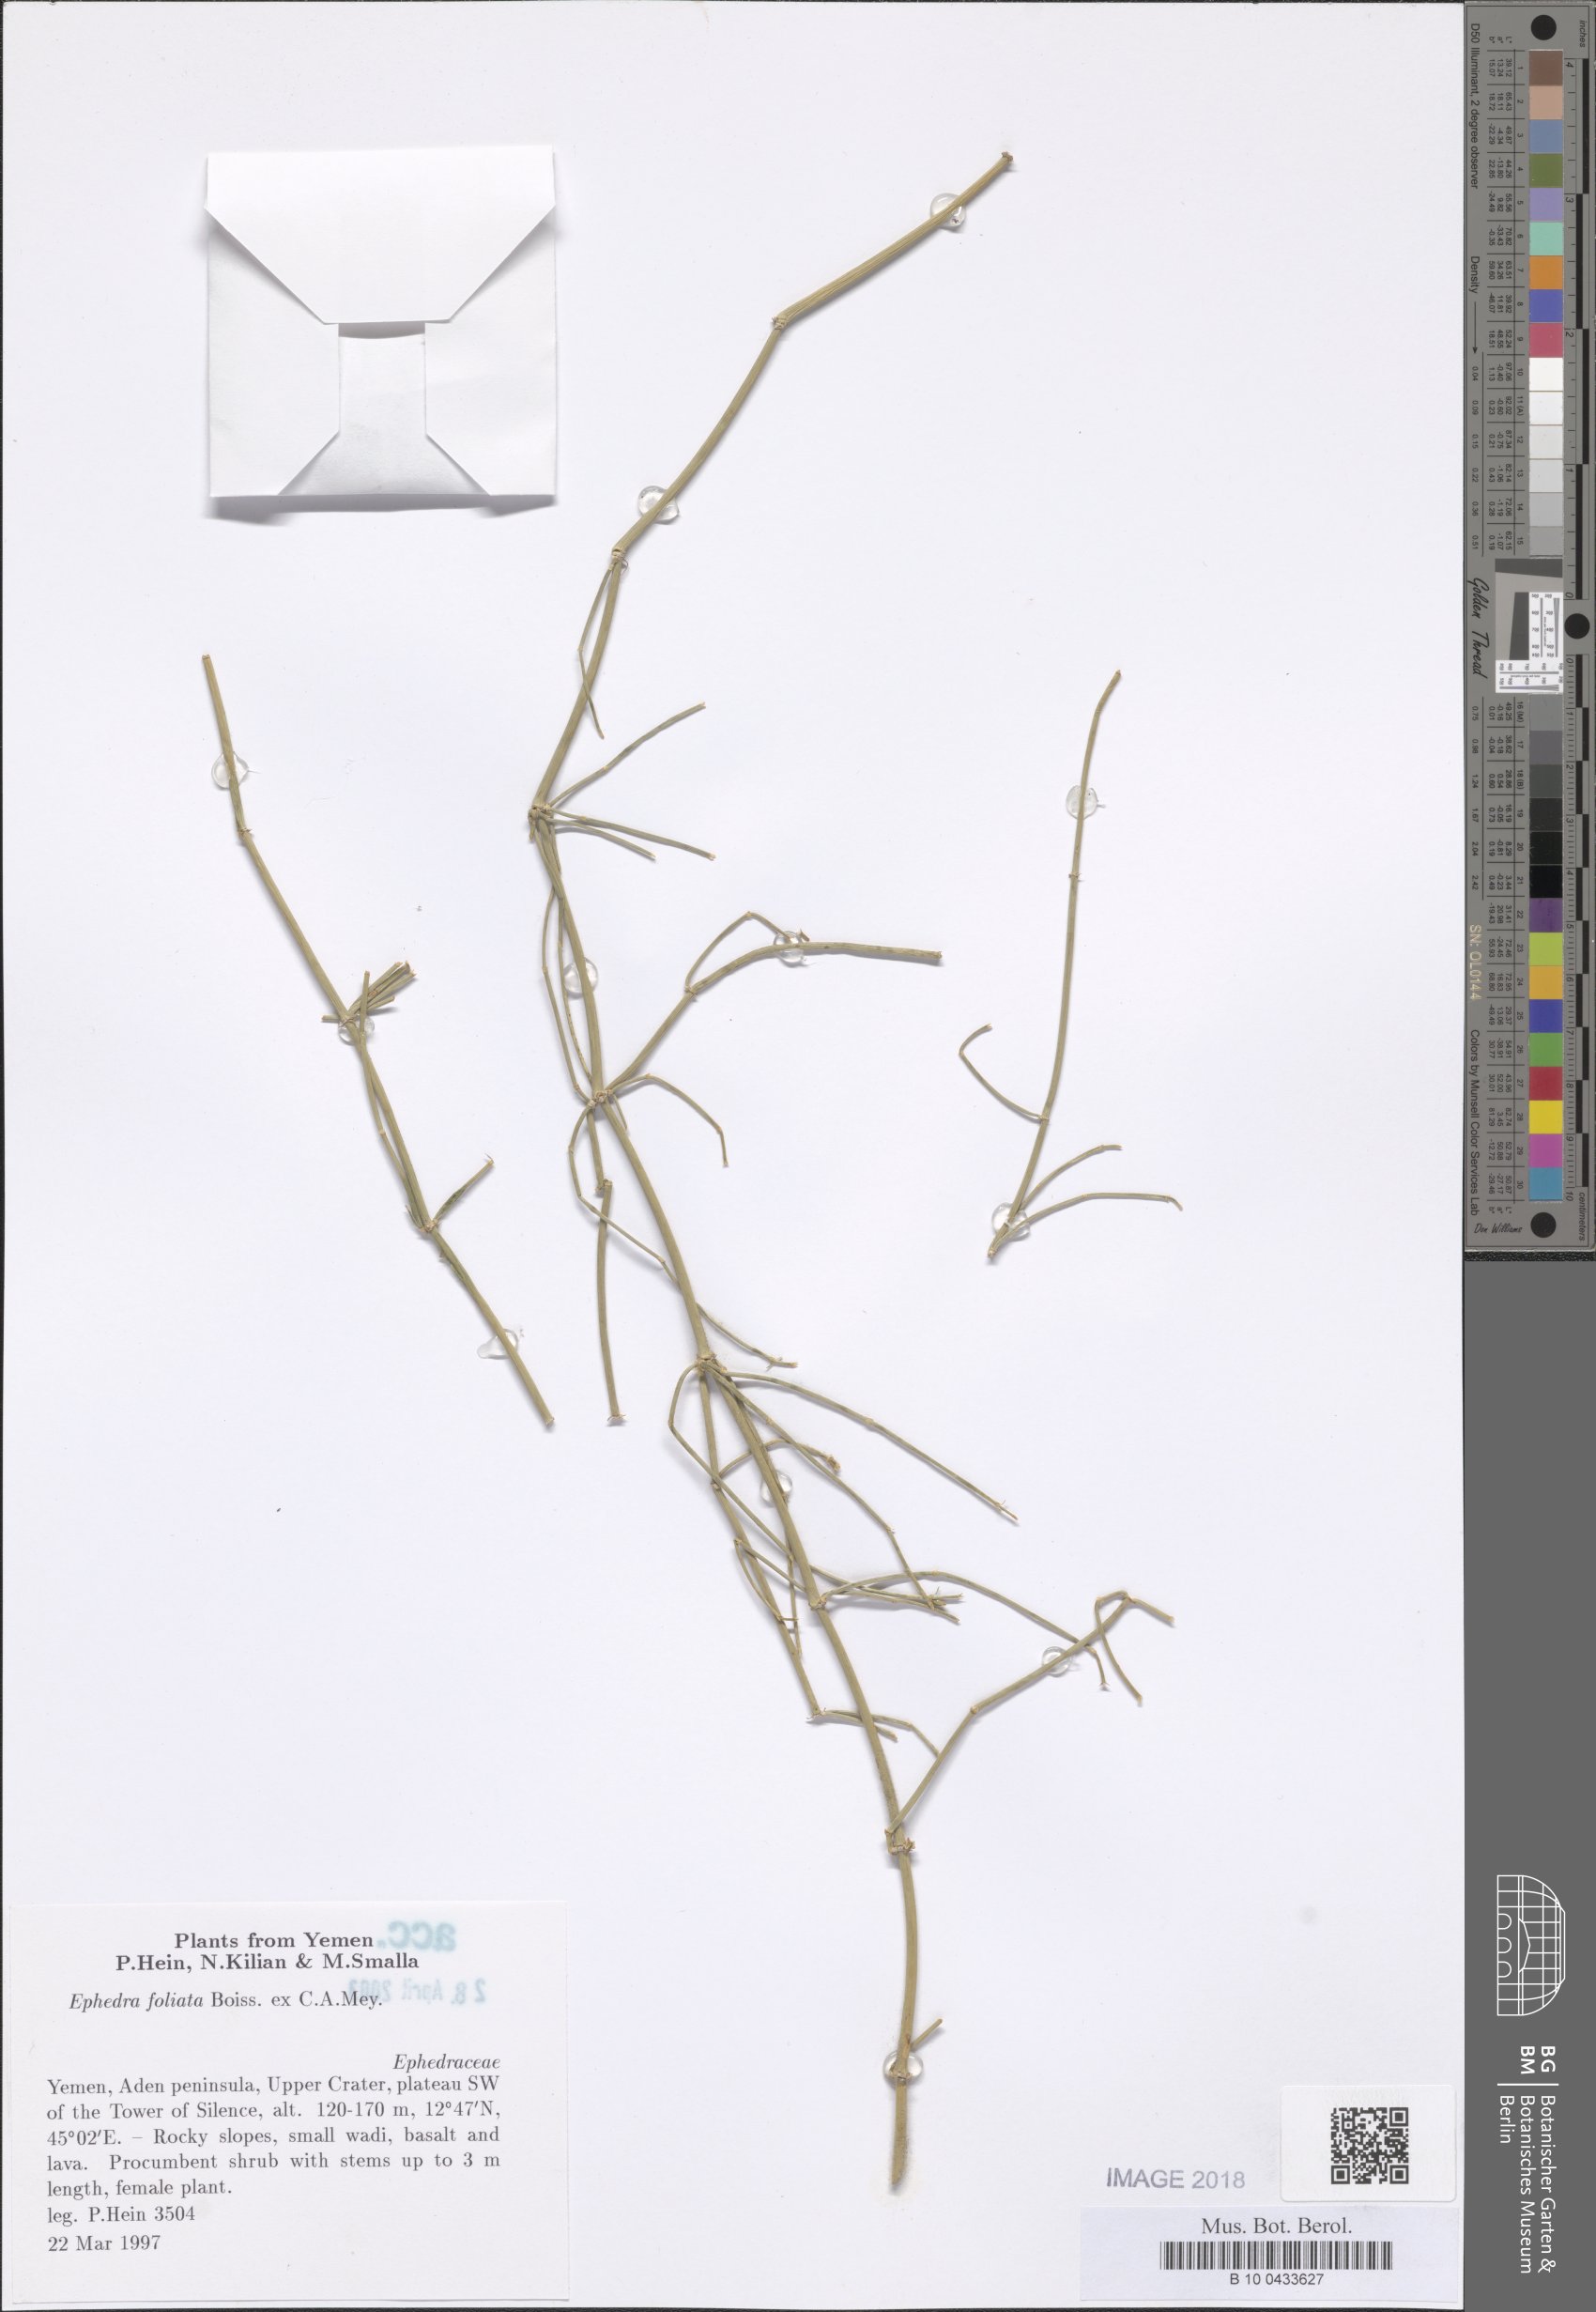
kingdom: Plantae
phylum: Tracheophyta
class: Gnetopsida
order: Ephedrales
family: Ephedraceae
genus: Ephedra
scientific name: Ephedra ciliata
